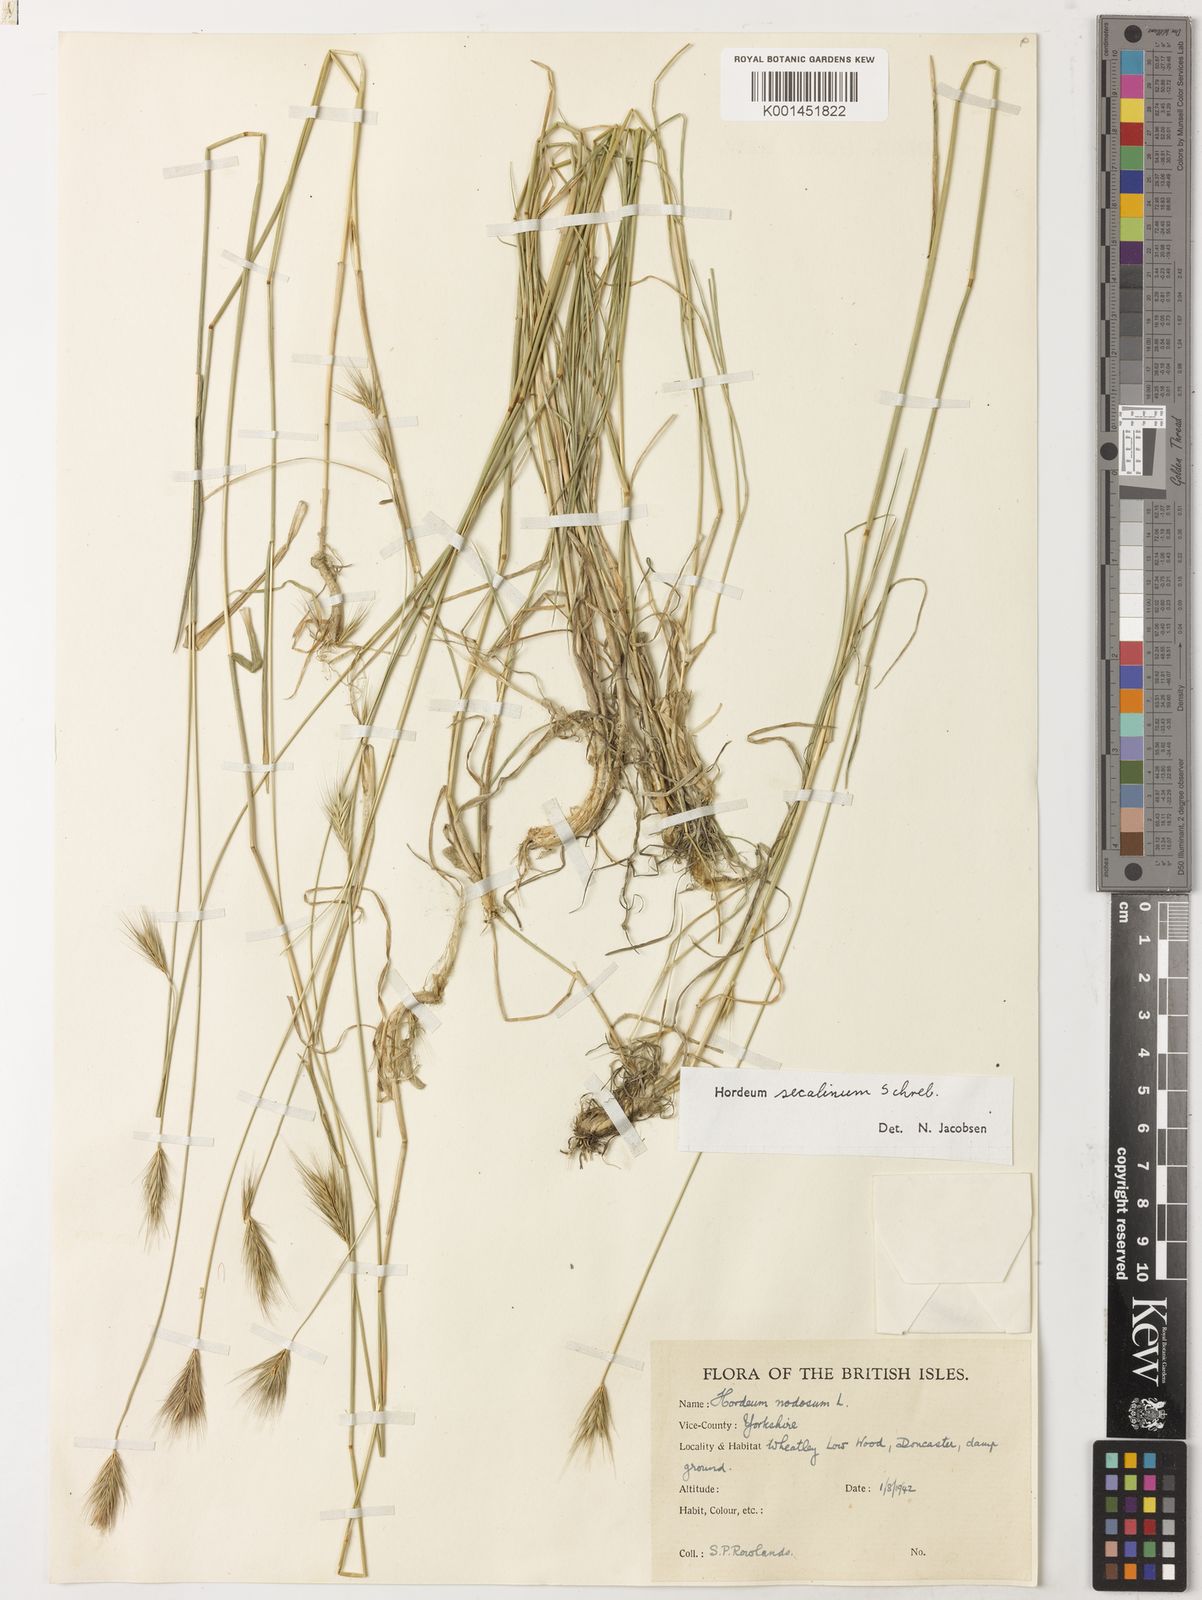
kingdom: Plantae
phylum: Tracheophyta
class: Liliopsida
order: Poales
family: Poaceae
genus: Hordeum
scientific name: Hordeum secalinum
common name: Meadow barley
